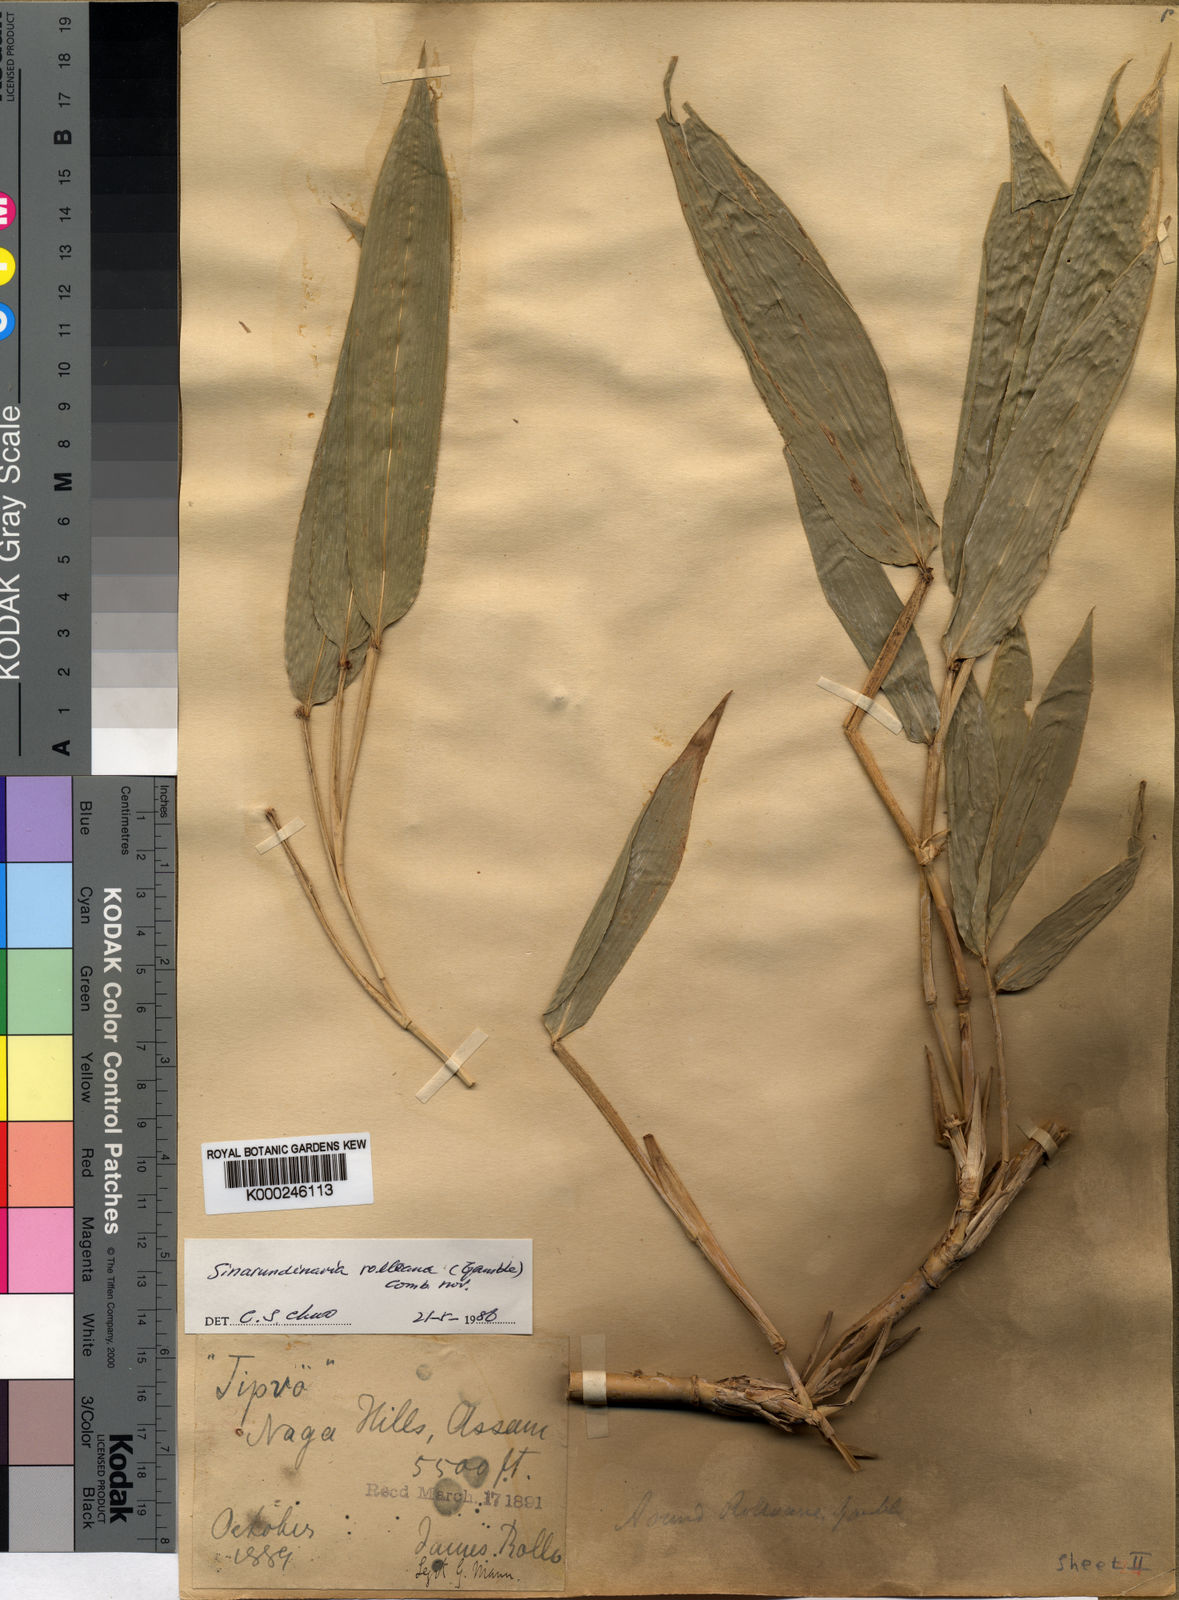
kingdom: Plantae
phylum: Tracheophyta
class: Liliopsida
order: Poales
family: Poaceae
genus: Yushania
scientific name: Yushania rolloana
